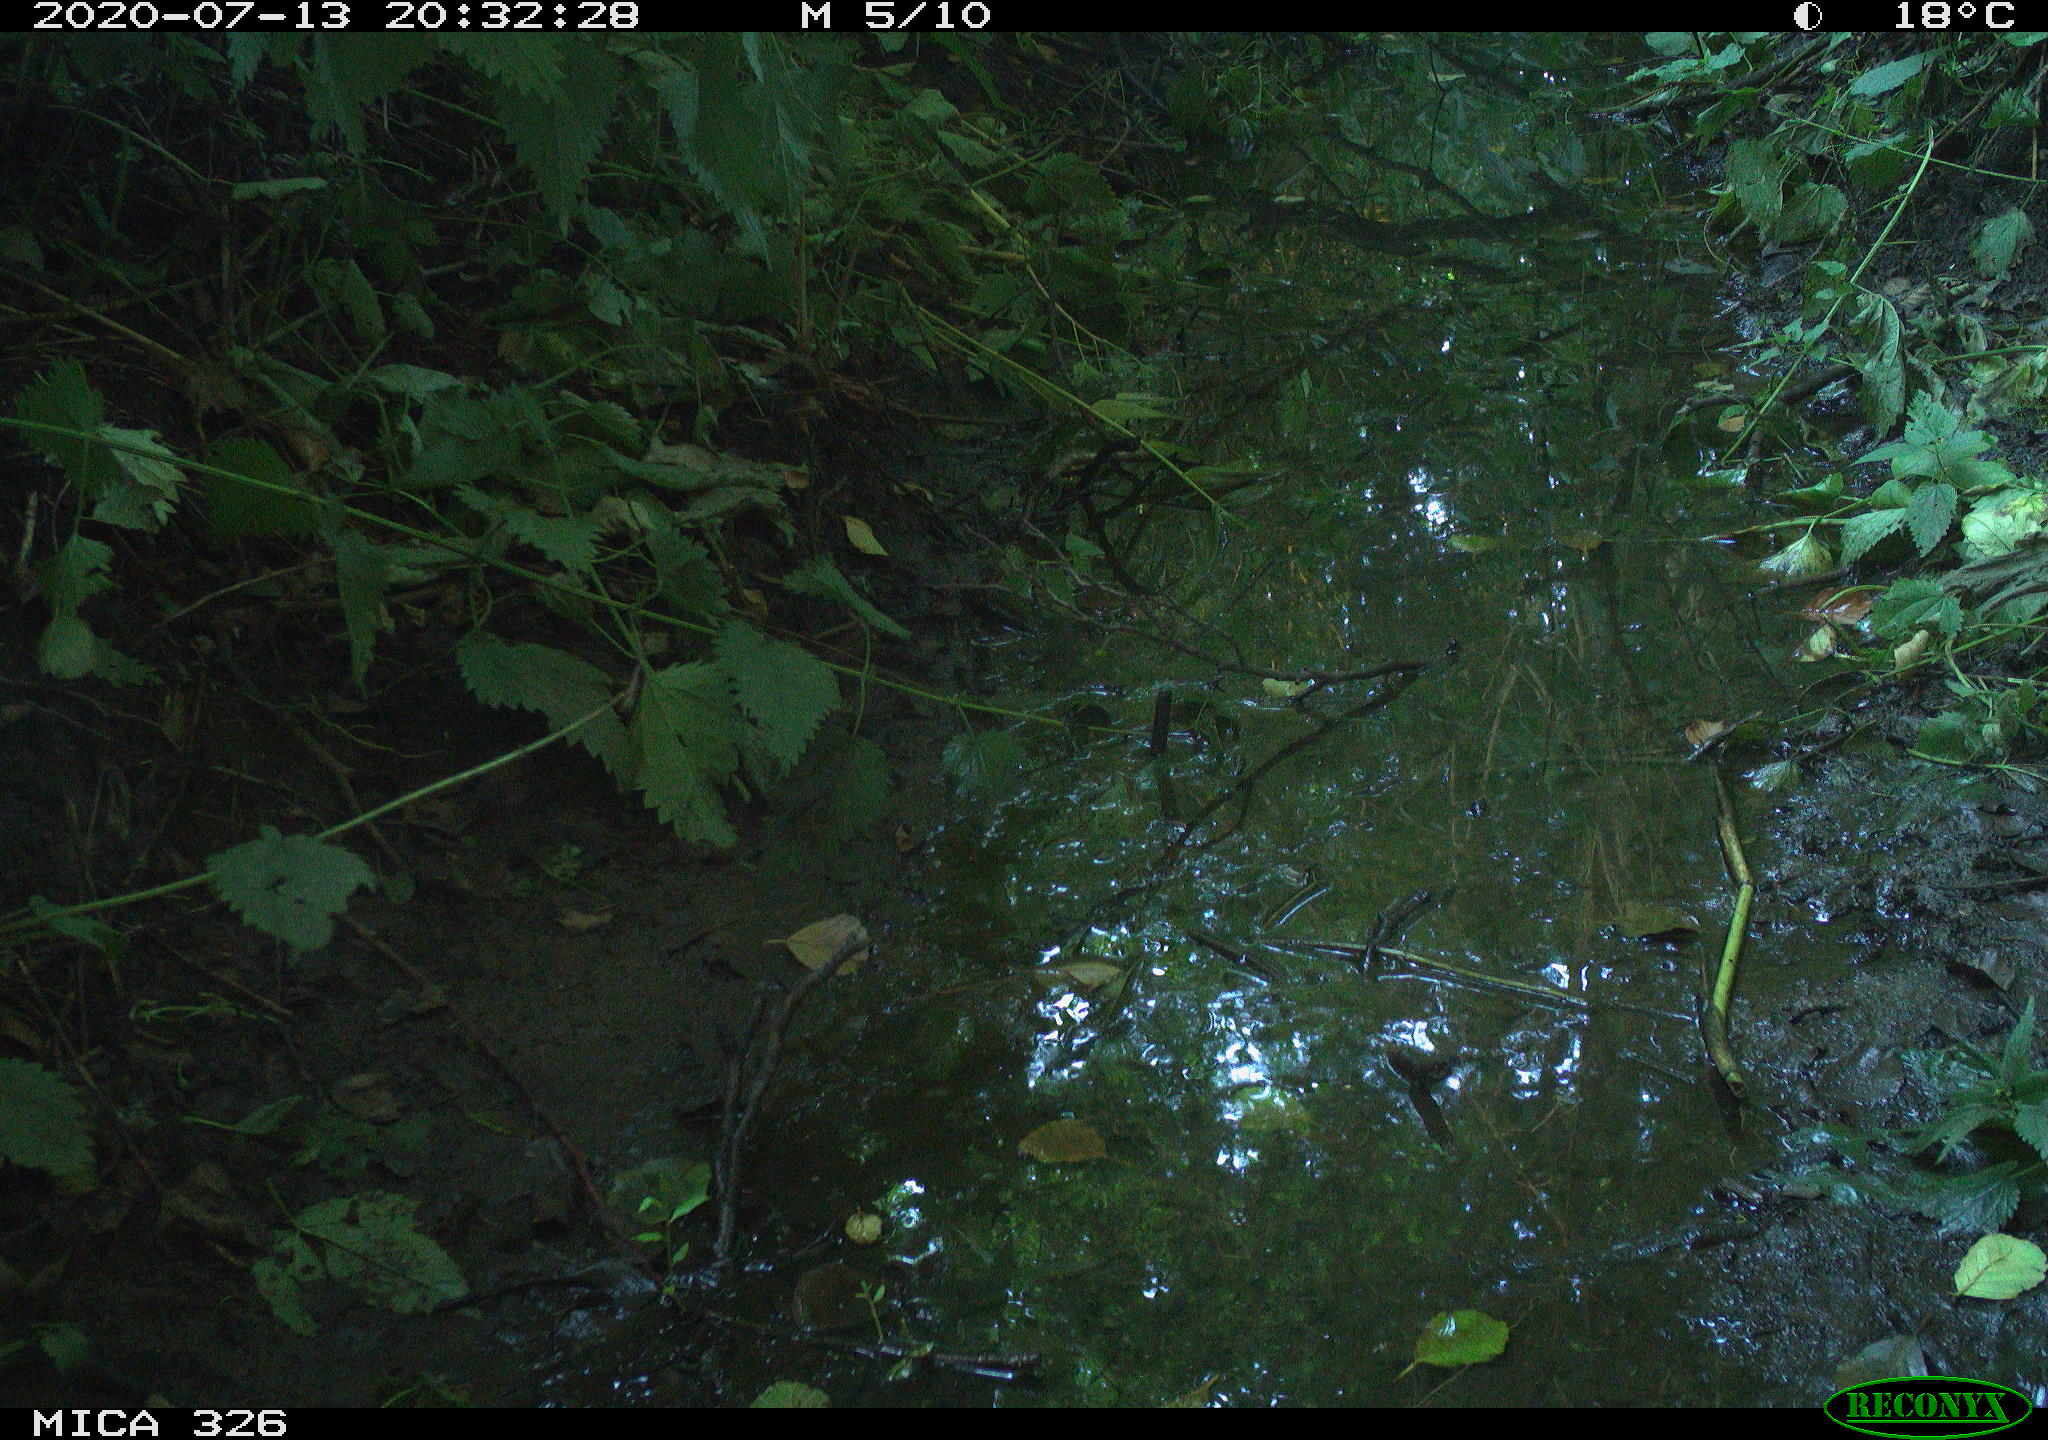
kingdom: Animalia
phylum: Chordata
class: Aves
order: Passeriformes
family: Turdidae
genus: Turdus
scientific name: Turdus philomelos
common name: Song thrush
